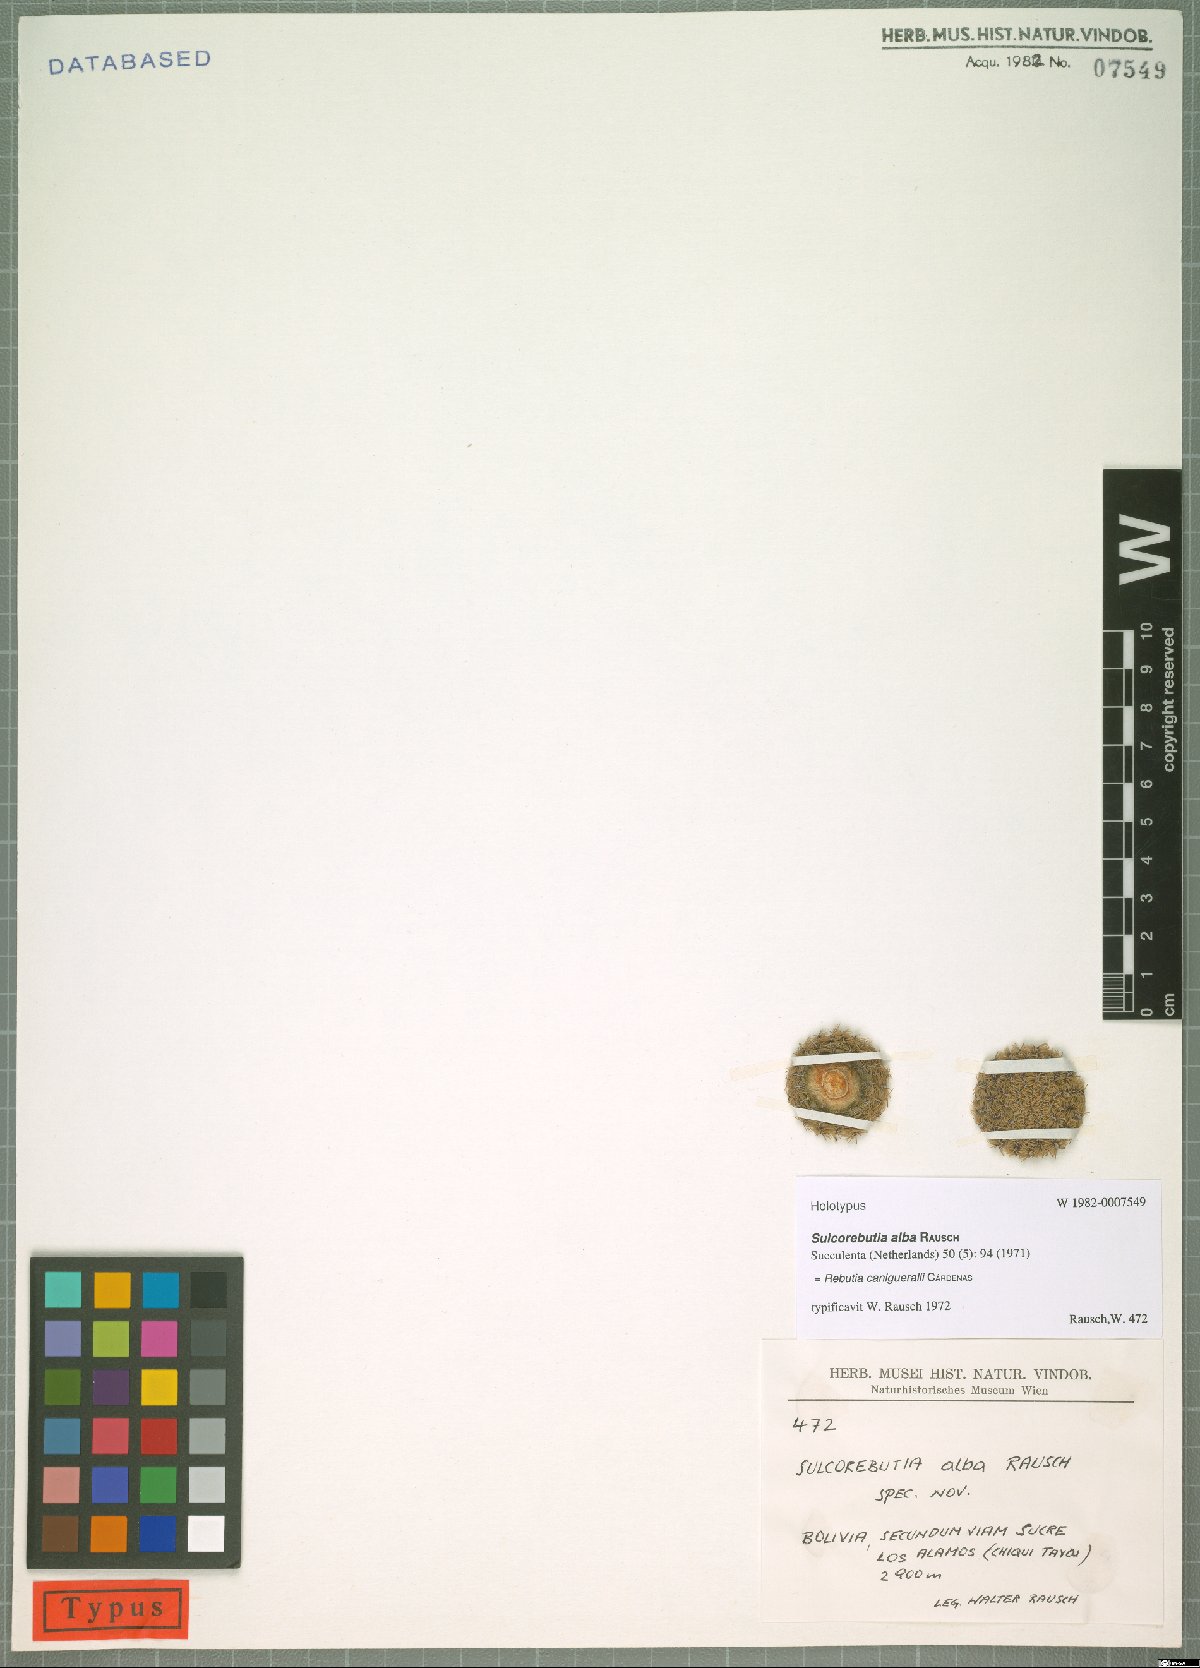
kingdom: Plantae
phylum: Tracheophyta
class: Magnoliopsida
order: Caryophyllales
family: Cactaceae
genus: Weingartia
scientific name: Weingartia canigueralii
